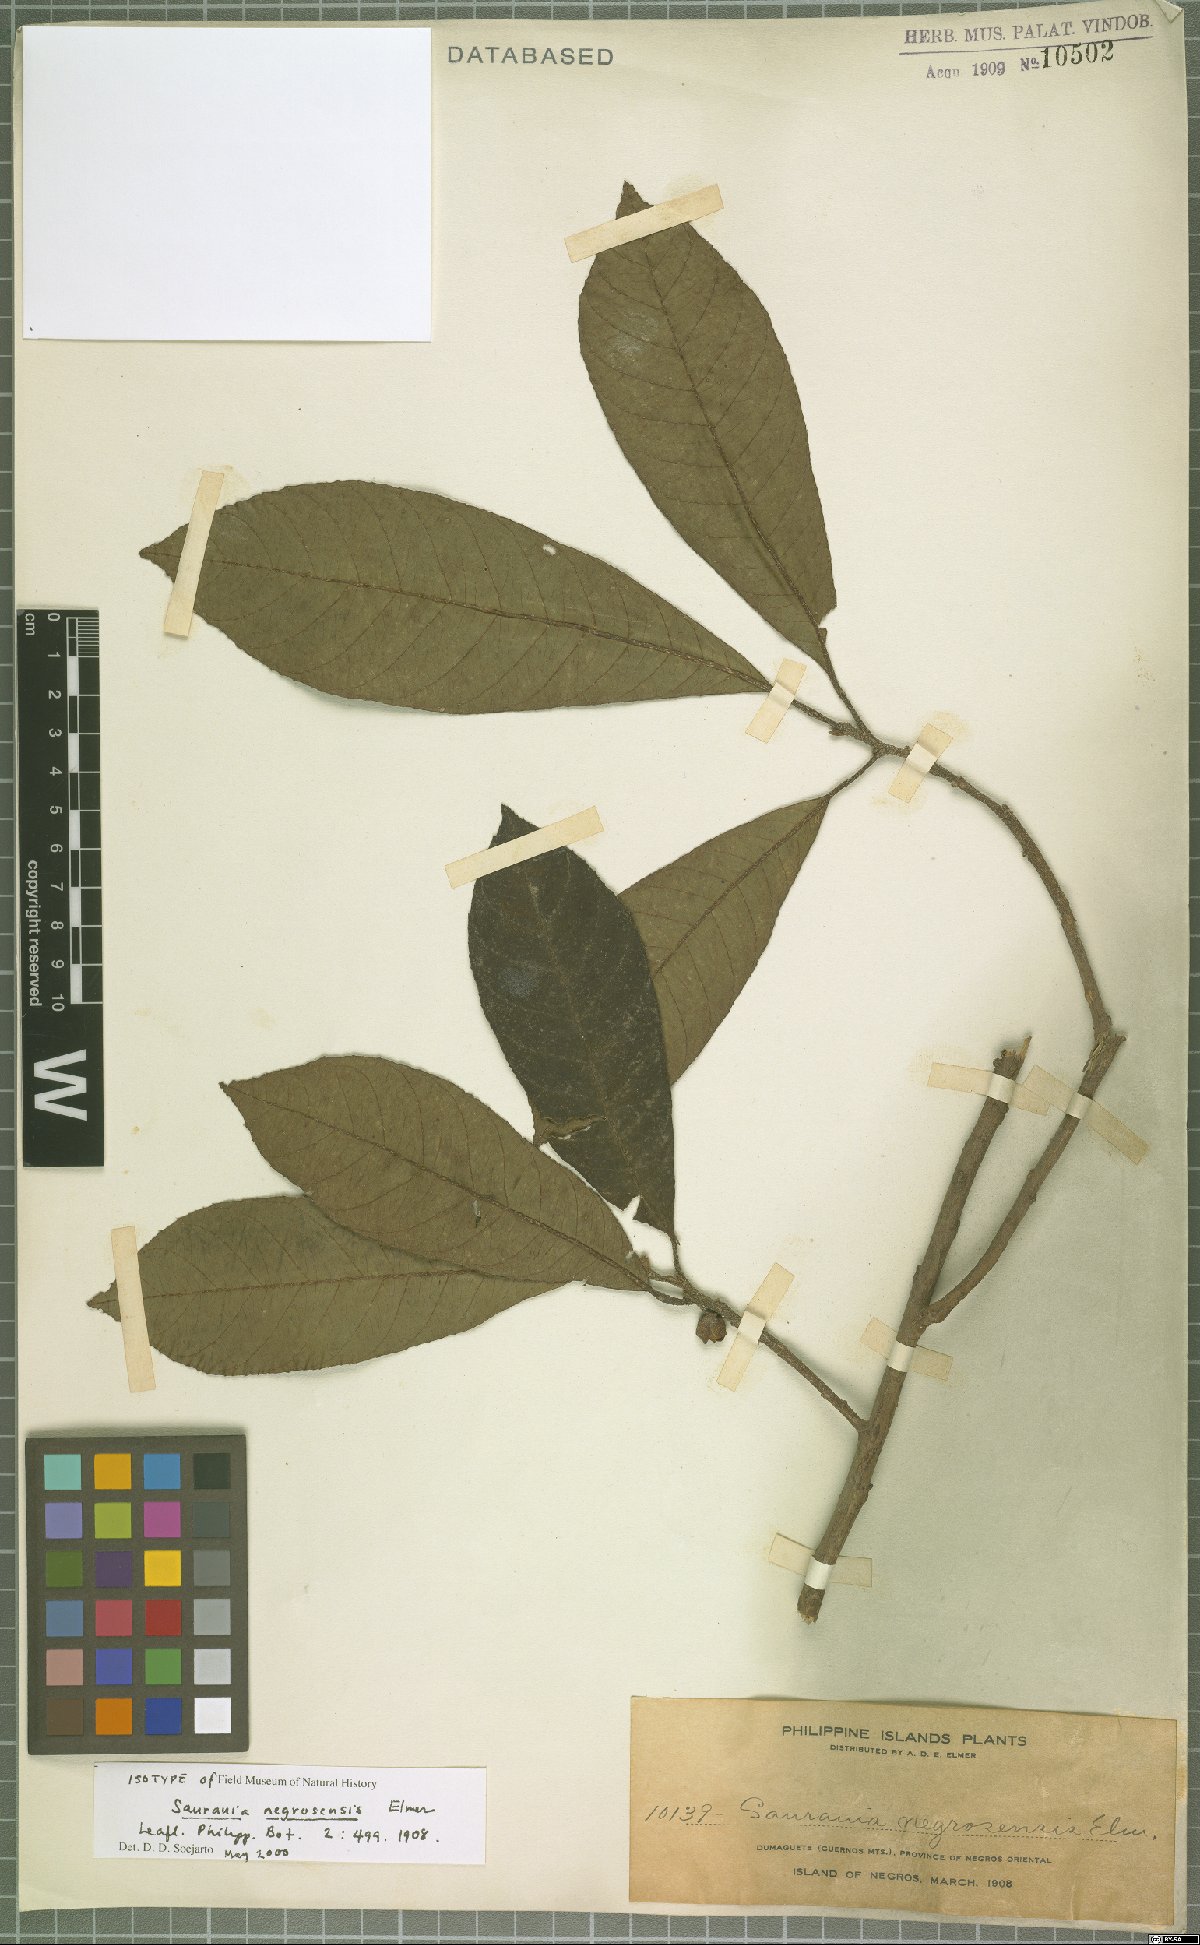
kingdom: Plantae
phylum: Tracheophyta
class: Magnoliopsida
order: Ericales
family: Actinidiaceae
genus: Saurauia
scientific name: Saurauia negrosensis
